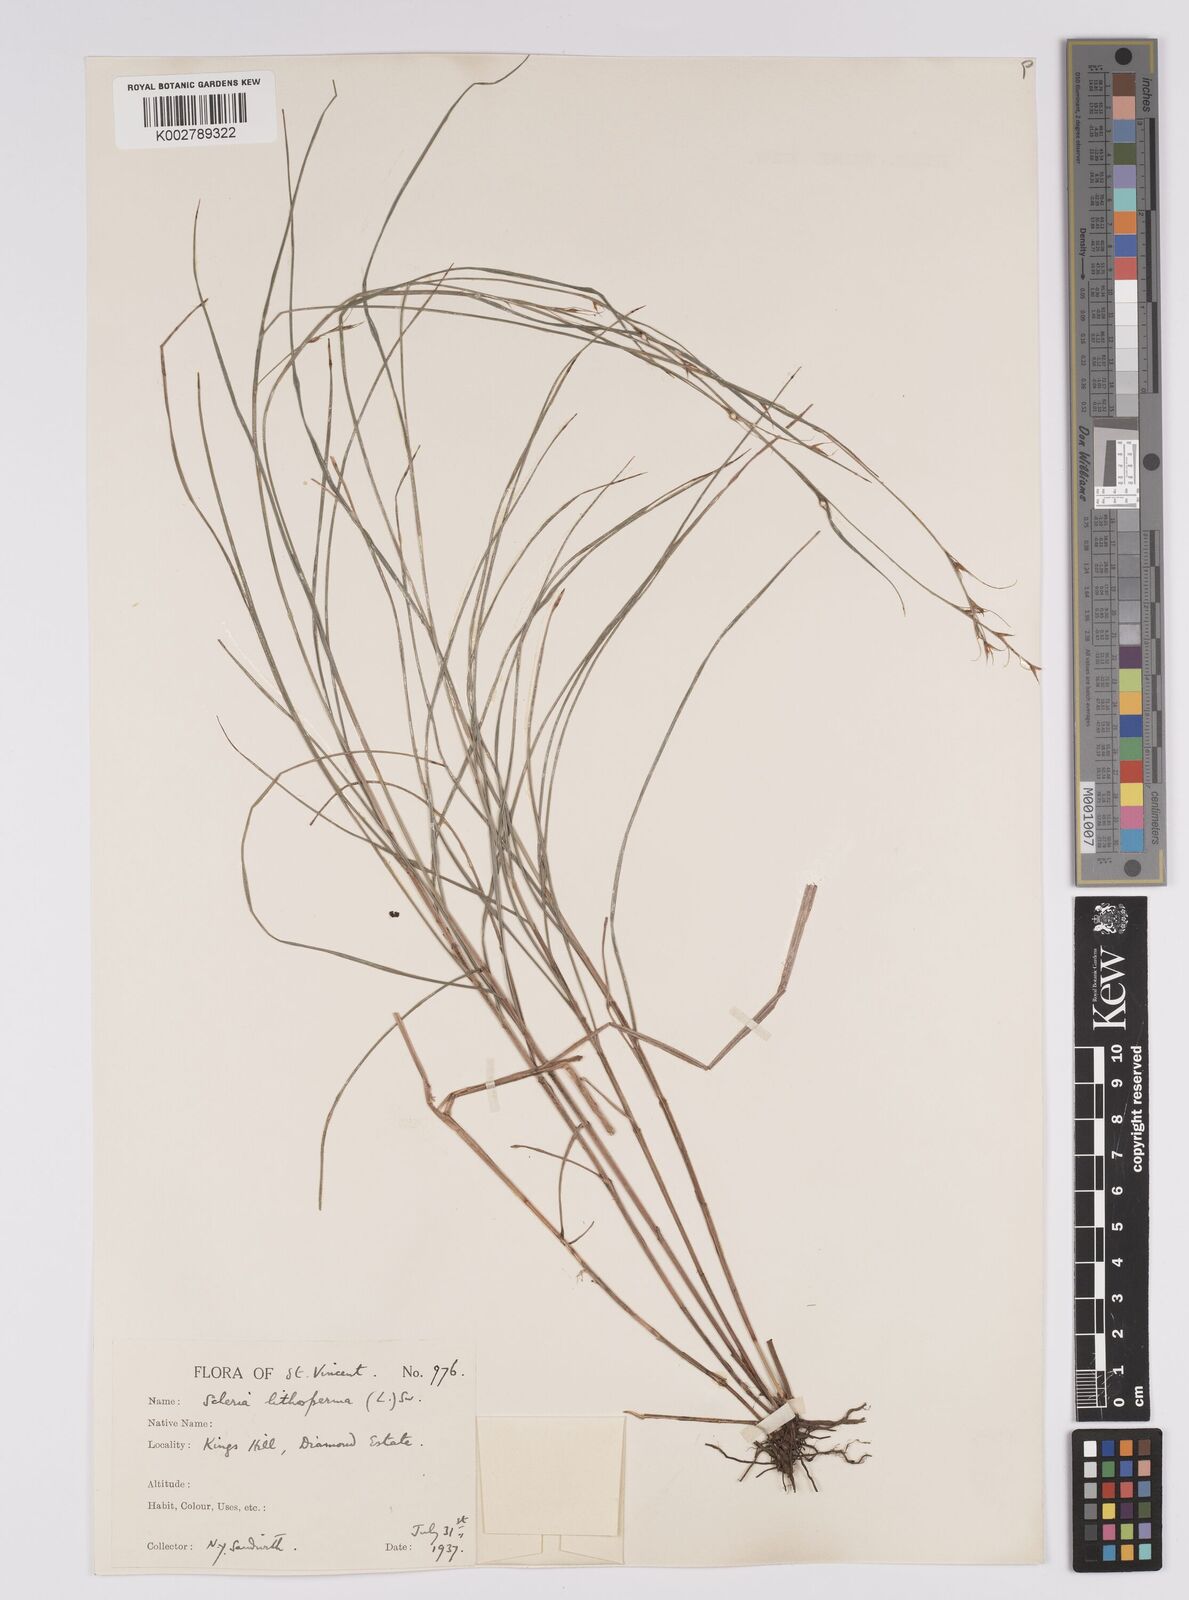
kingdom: Plantae
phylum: Tracheophyta
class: Liliopsida
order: Poales
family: Cyperaceae
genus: Scleria
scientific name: Scleria lithosperma
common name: Florida keys nut-rush
